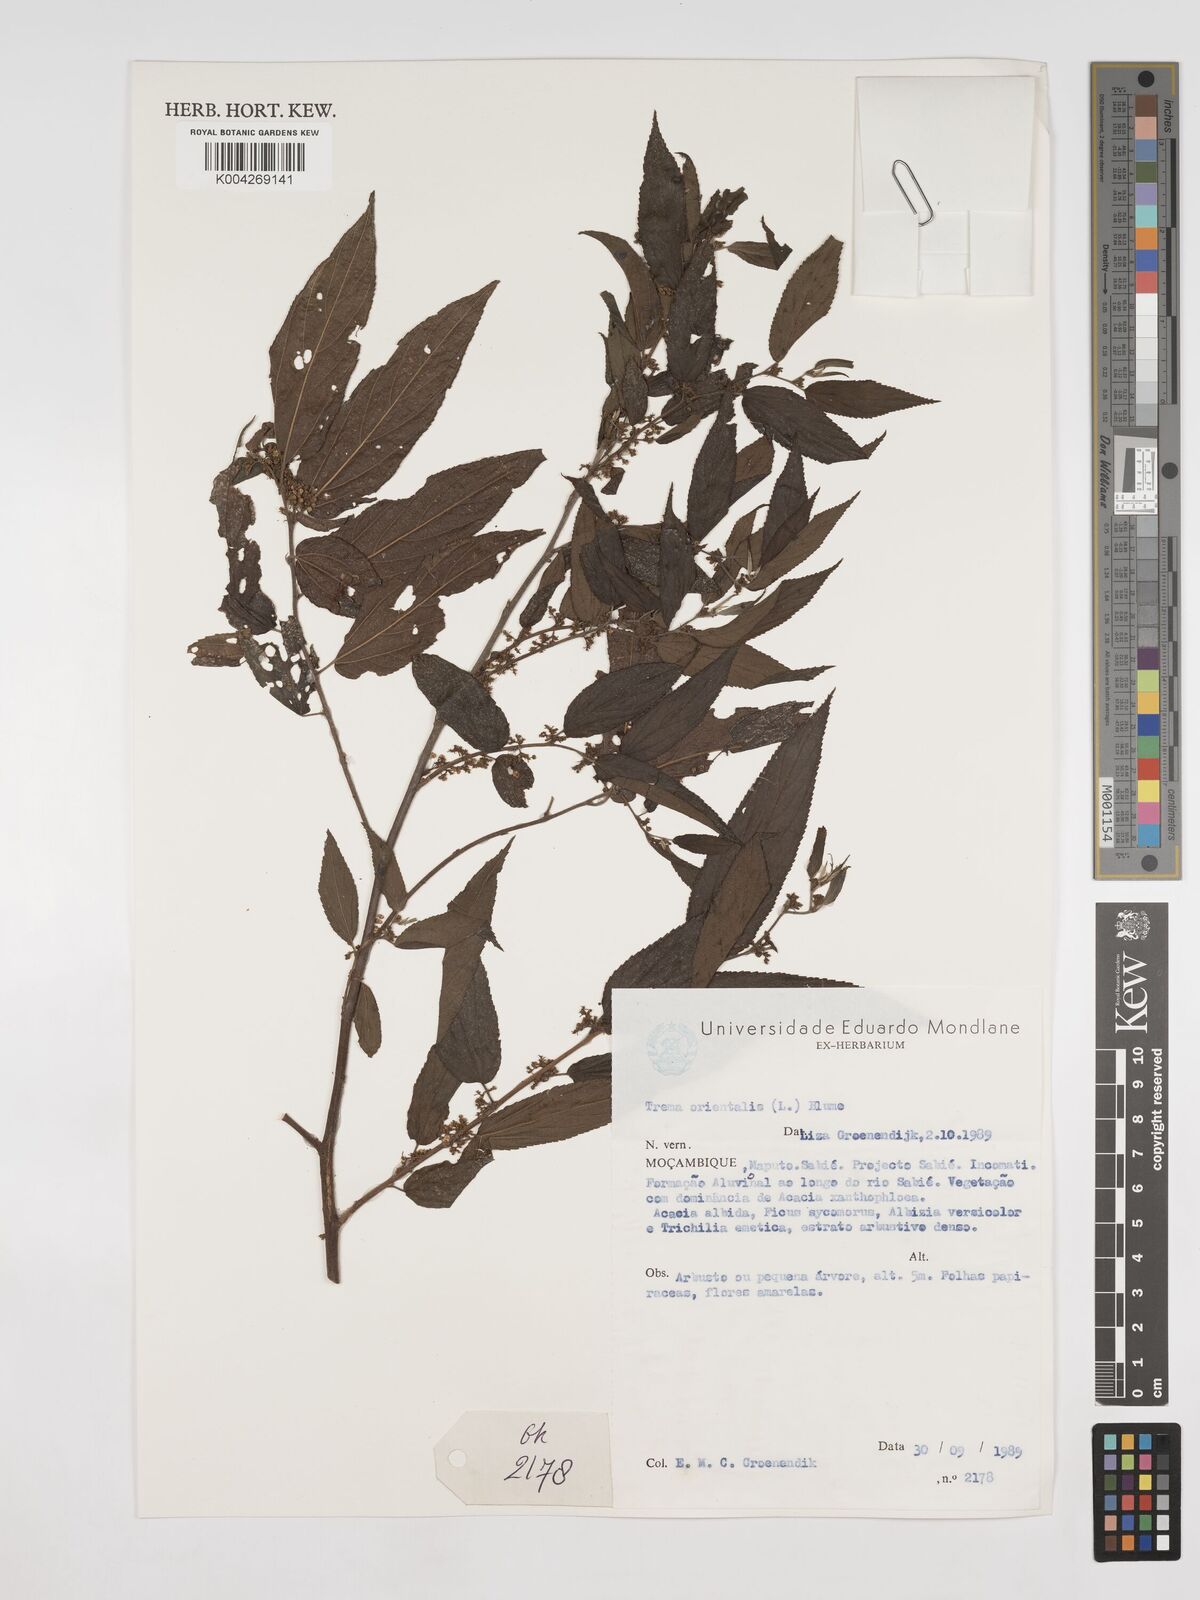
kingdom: Plantae
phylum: Tracheophyta
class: Magnoliopsida
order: Rosales
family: Cannabaceae
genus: Trema
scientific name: Trema orientale
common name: Indian charcoal tree
